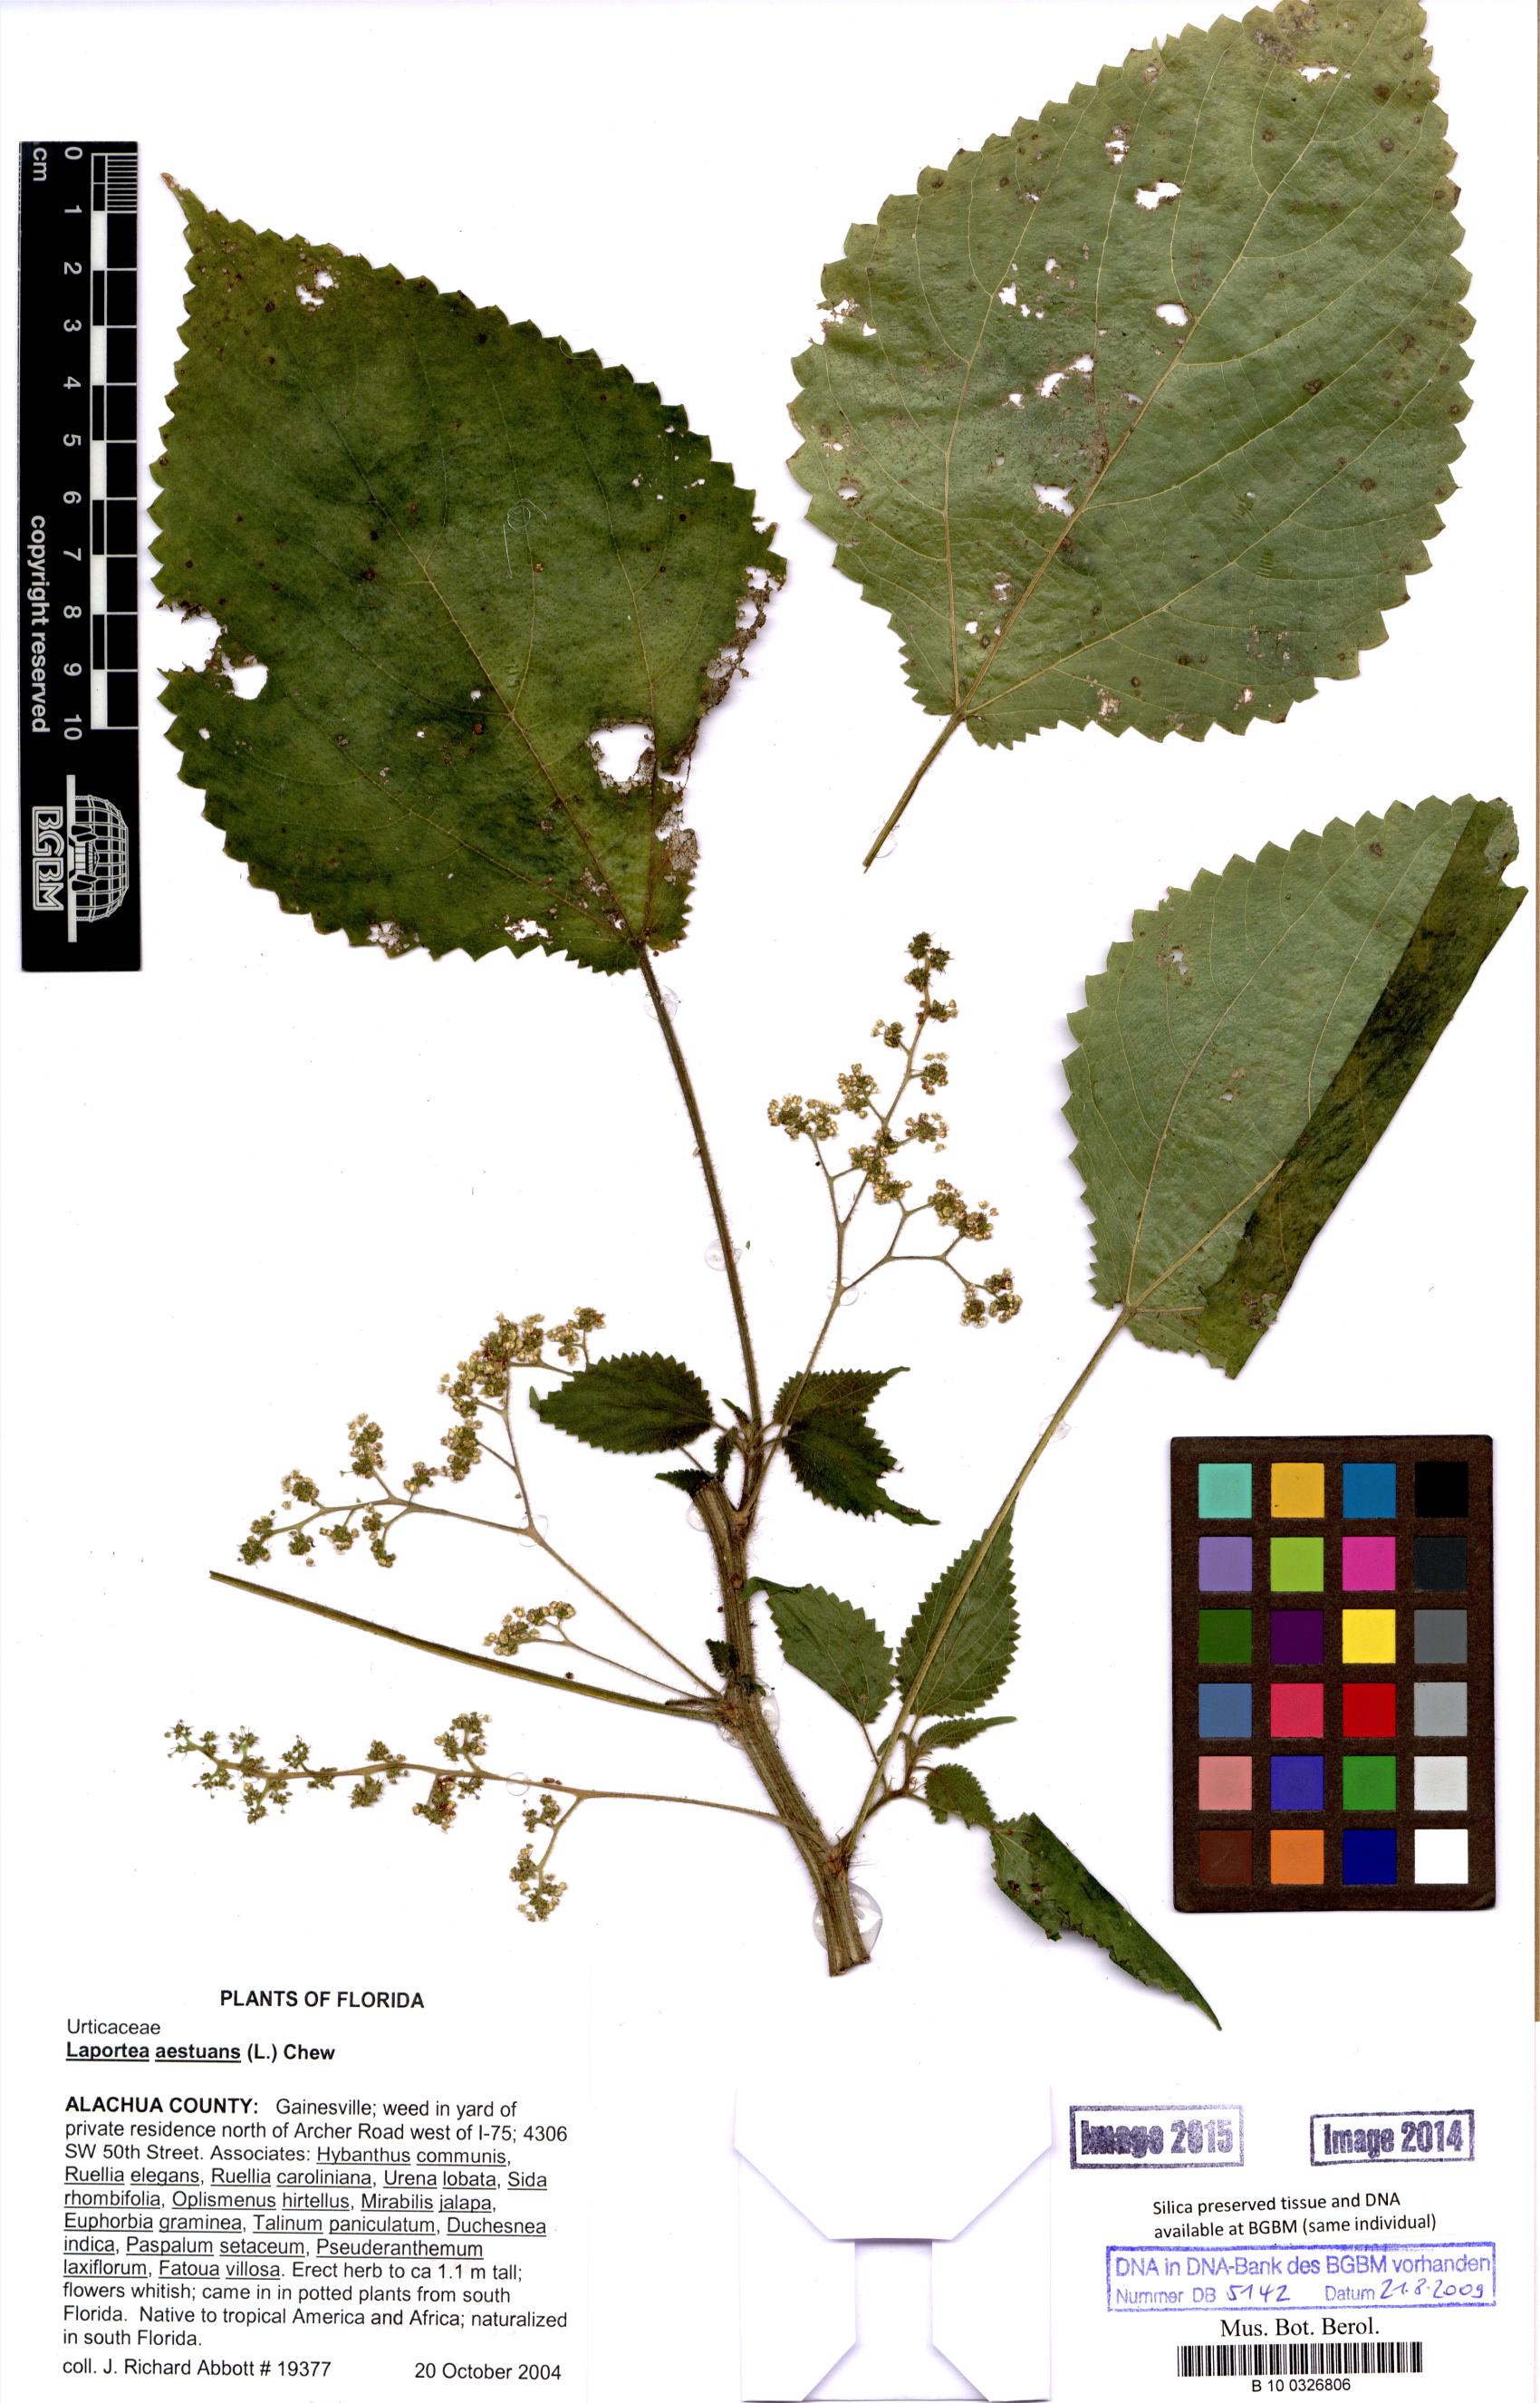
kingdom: Plantae
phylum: Tracheophyta
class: Magnoliopsida
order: Rosales
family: Urticaceae
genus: Laportea
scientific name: Laportea aestuans
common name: West indian woodnettle
